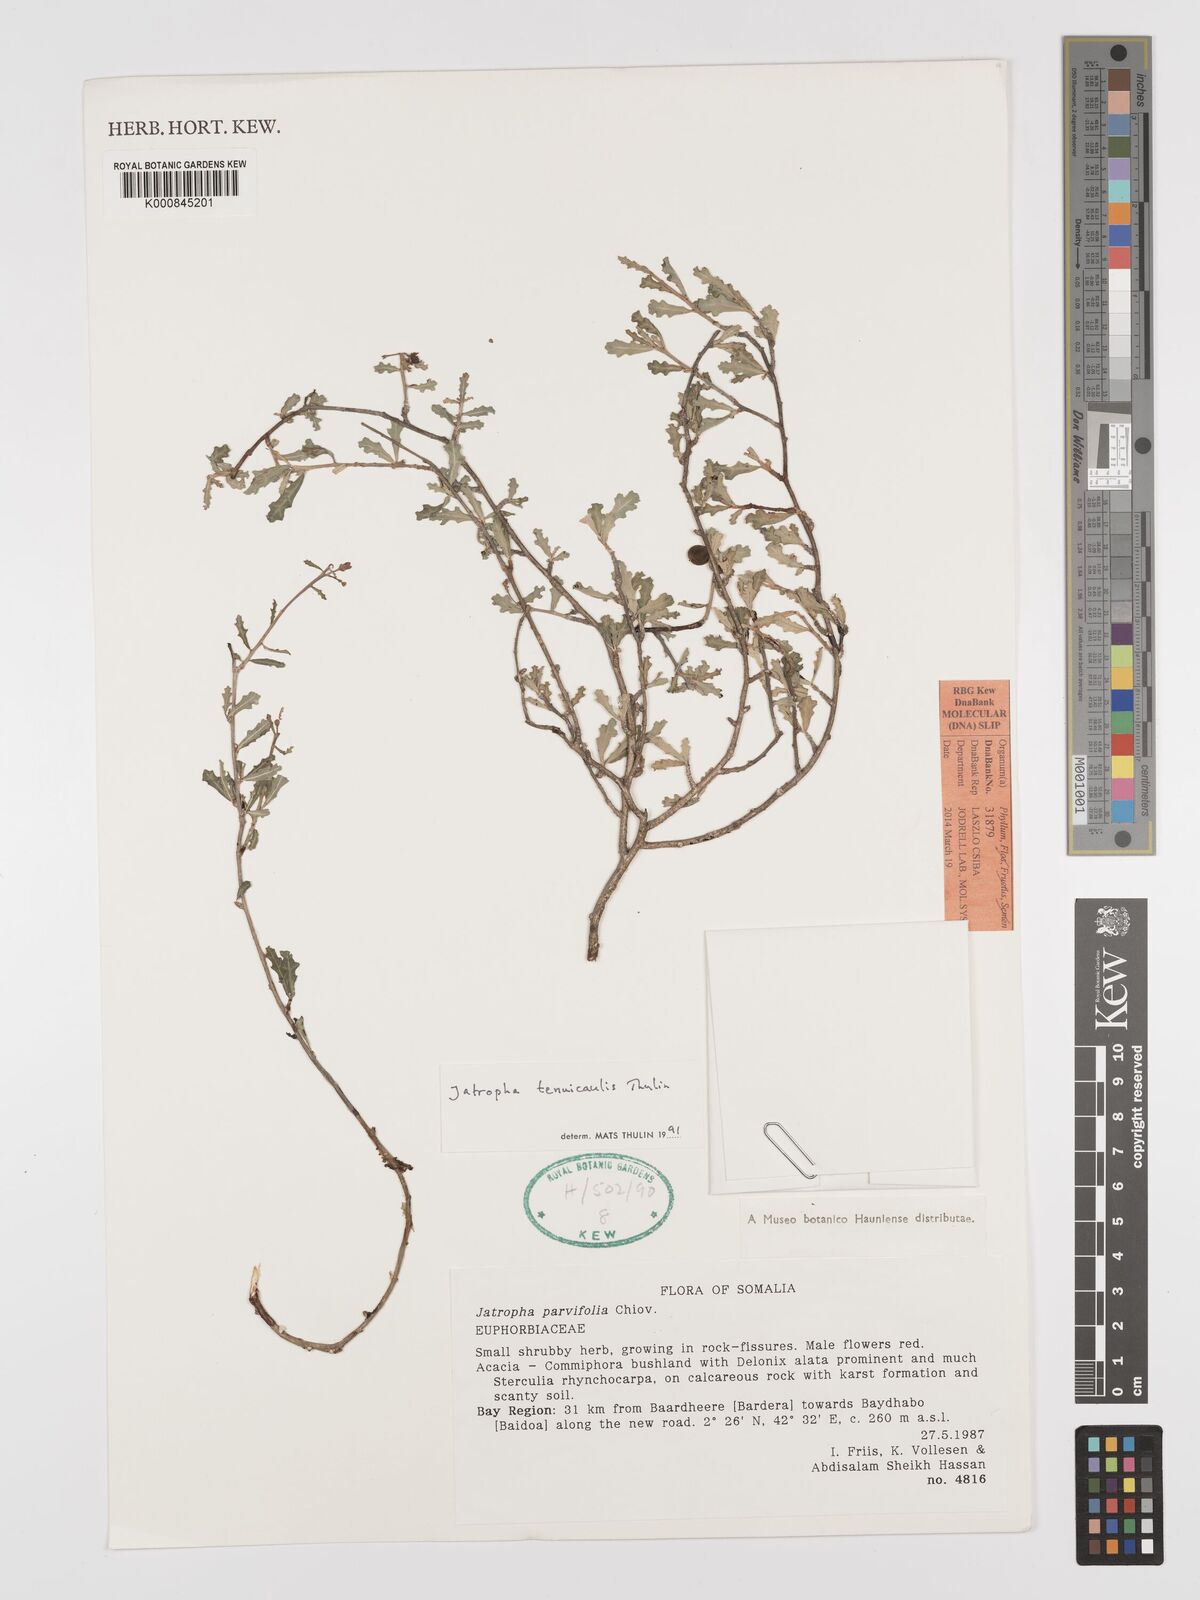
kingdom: Plantae
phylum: Tracheophyta
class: Magnoliopsida
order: Malpighiales
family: Euphorbiaceae
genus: Jatropha
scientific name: Jatropha tenuicaulis
